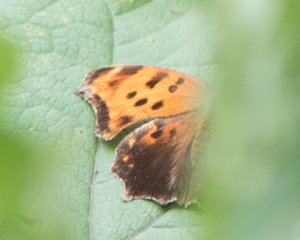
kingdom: Animalia
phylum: Arthropoda
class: Insecta
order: Lepidoptera
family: Nymphalidae
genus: Polygonia
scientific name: Polygonia comma
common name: Eastern Comma
